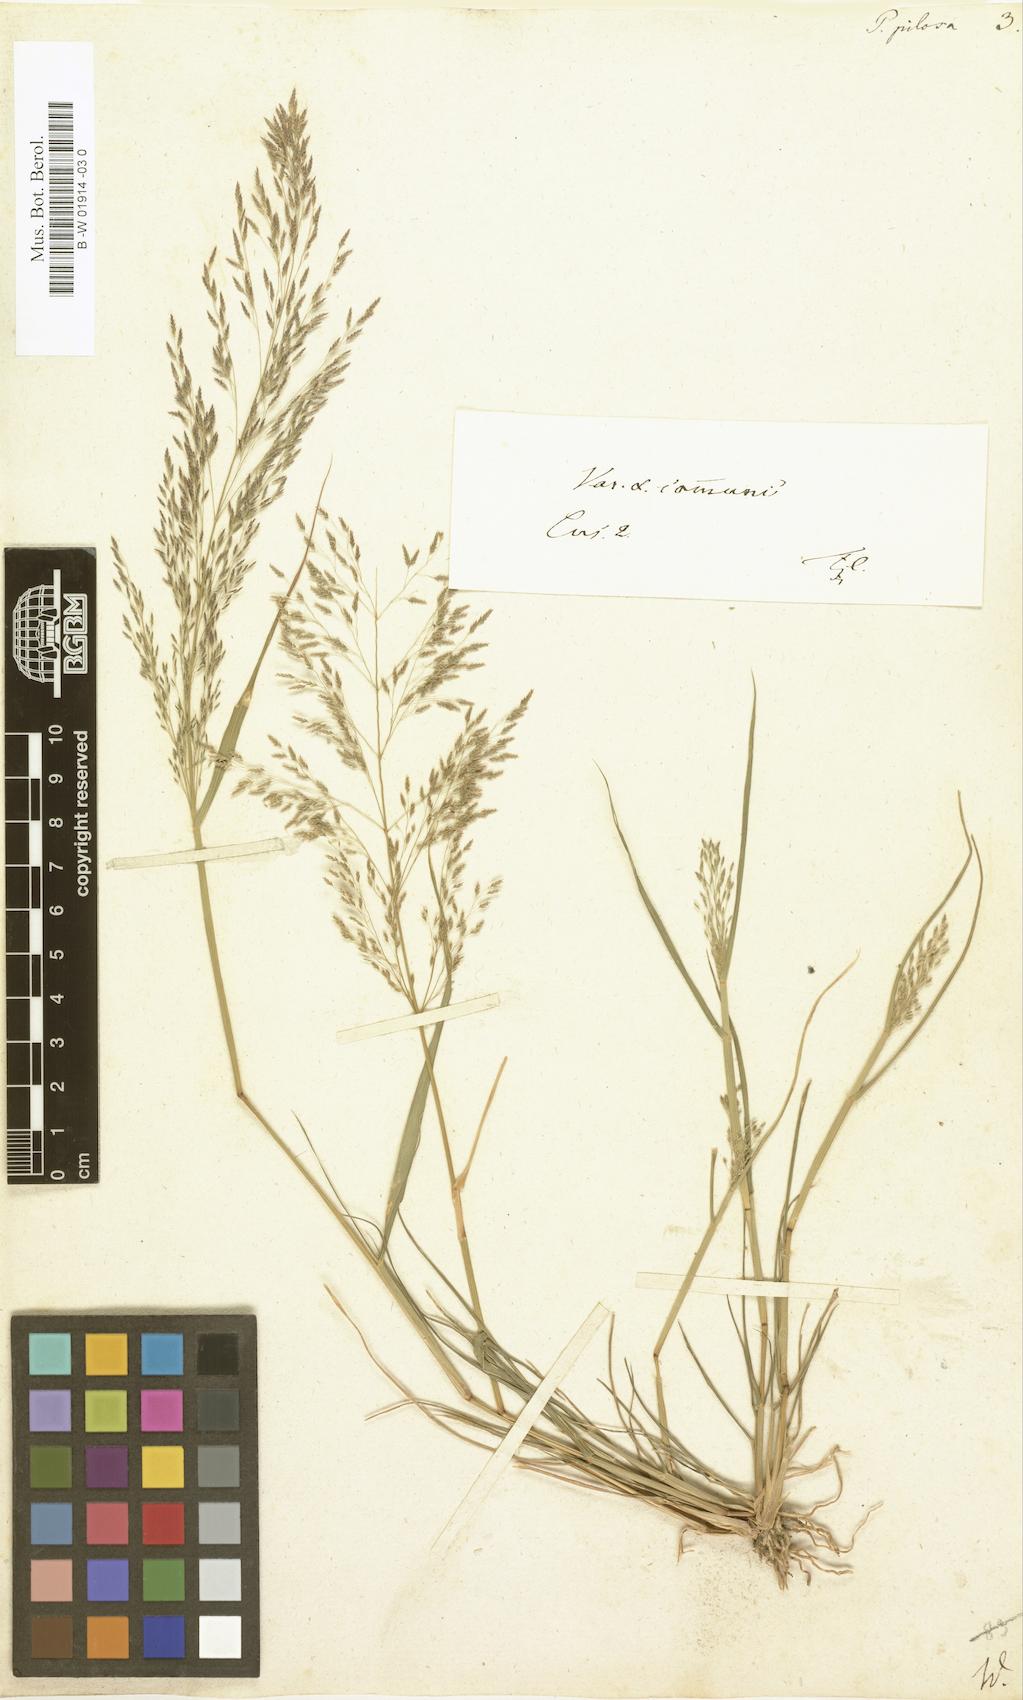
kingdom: Plantae
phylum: Tracheophyta
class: Liliopsida
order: Poales
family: Poaceae
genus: Eragrostis
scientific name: Eragrostis
